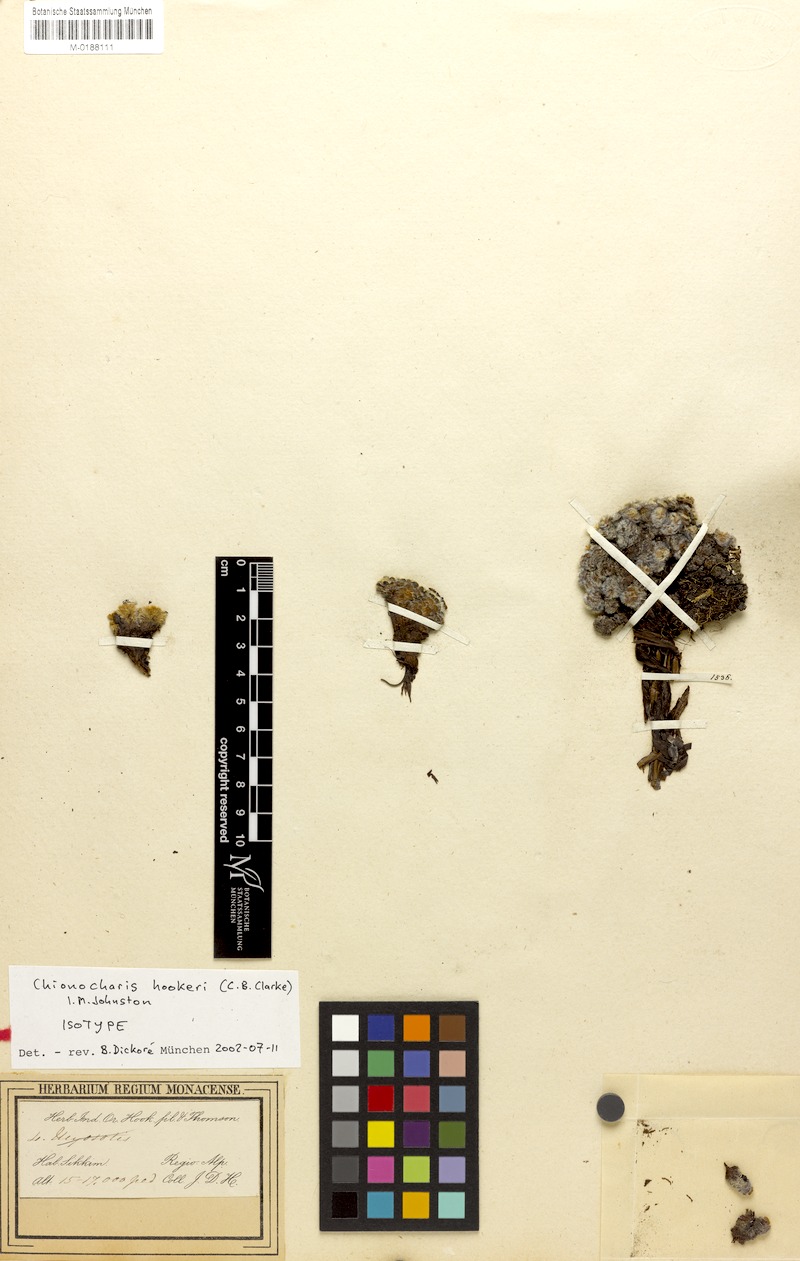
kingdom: Plantae
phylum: Tracheophyta
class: Magnoliopsida
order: Boraginales
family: Boraginaceae
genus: Chionocharis
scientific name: Chionocharis hookeri
